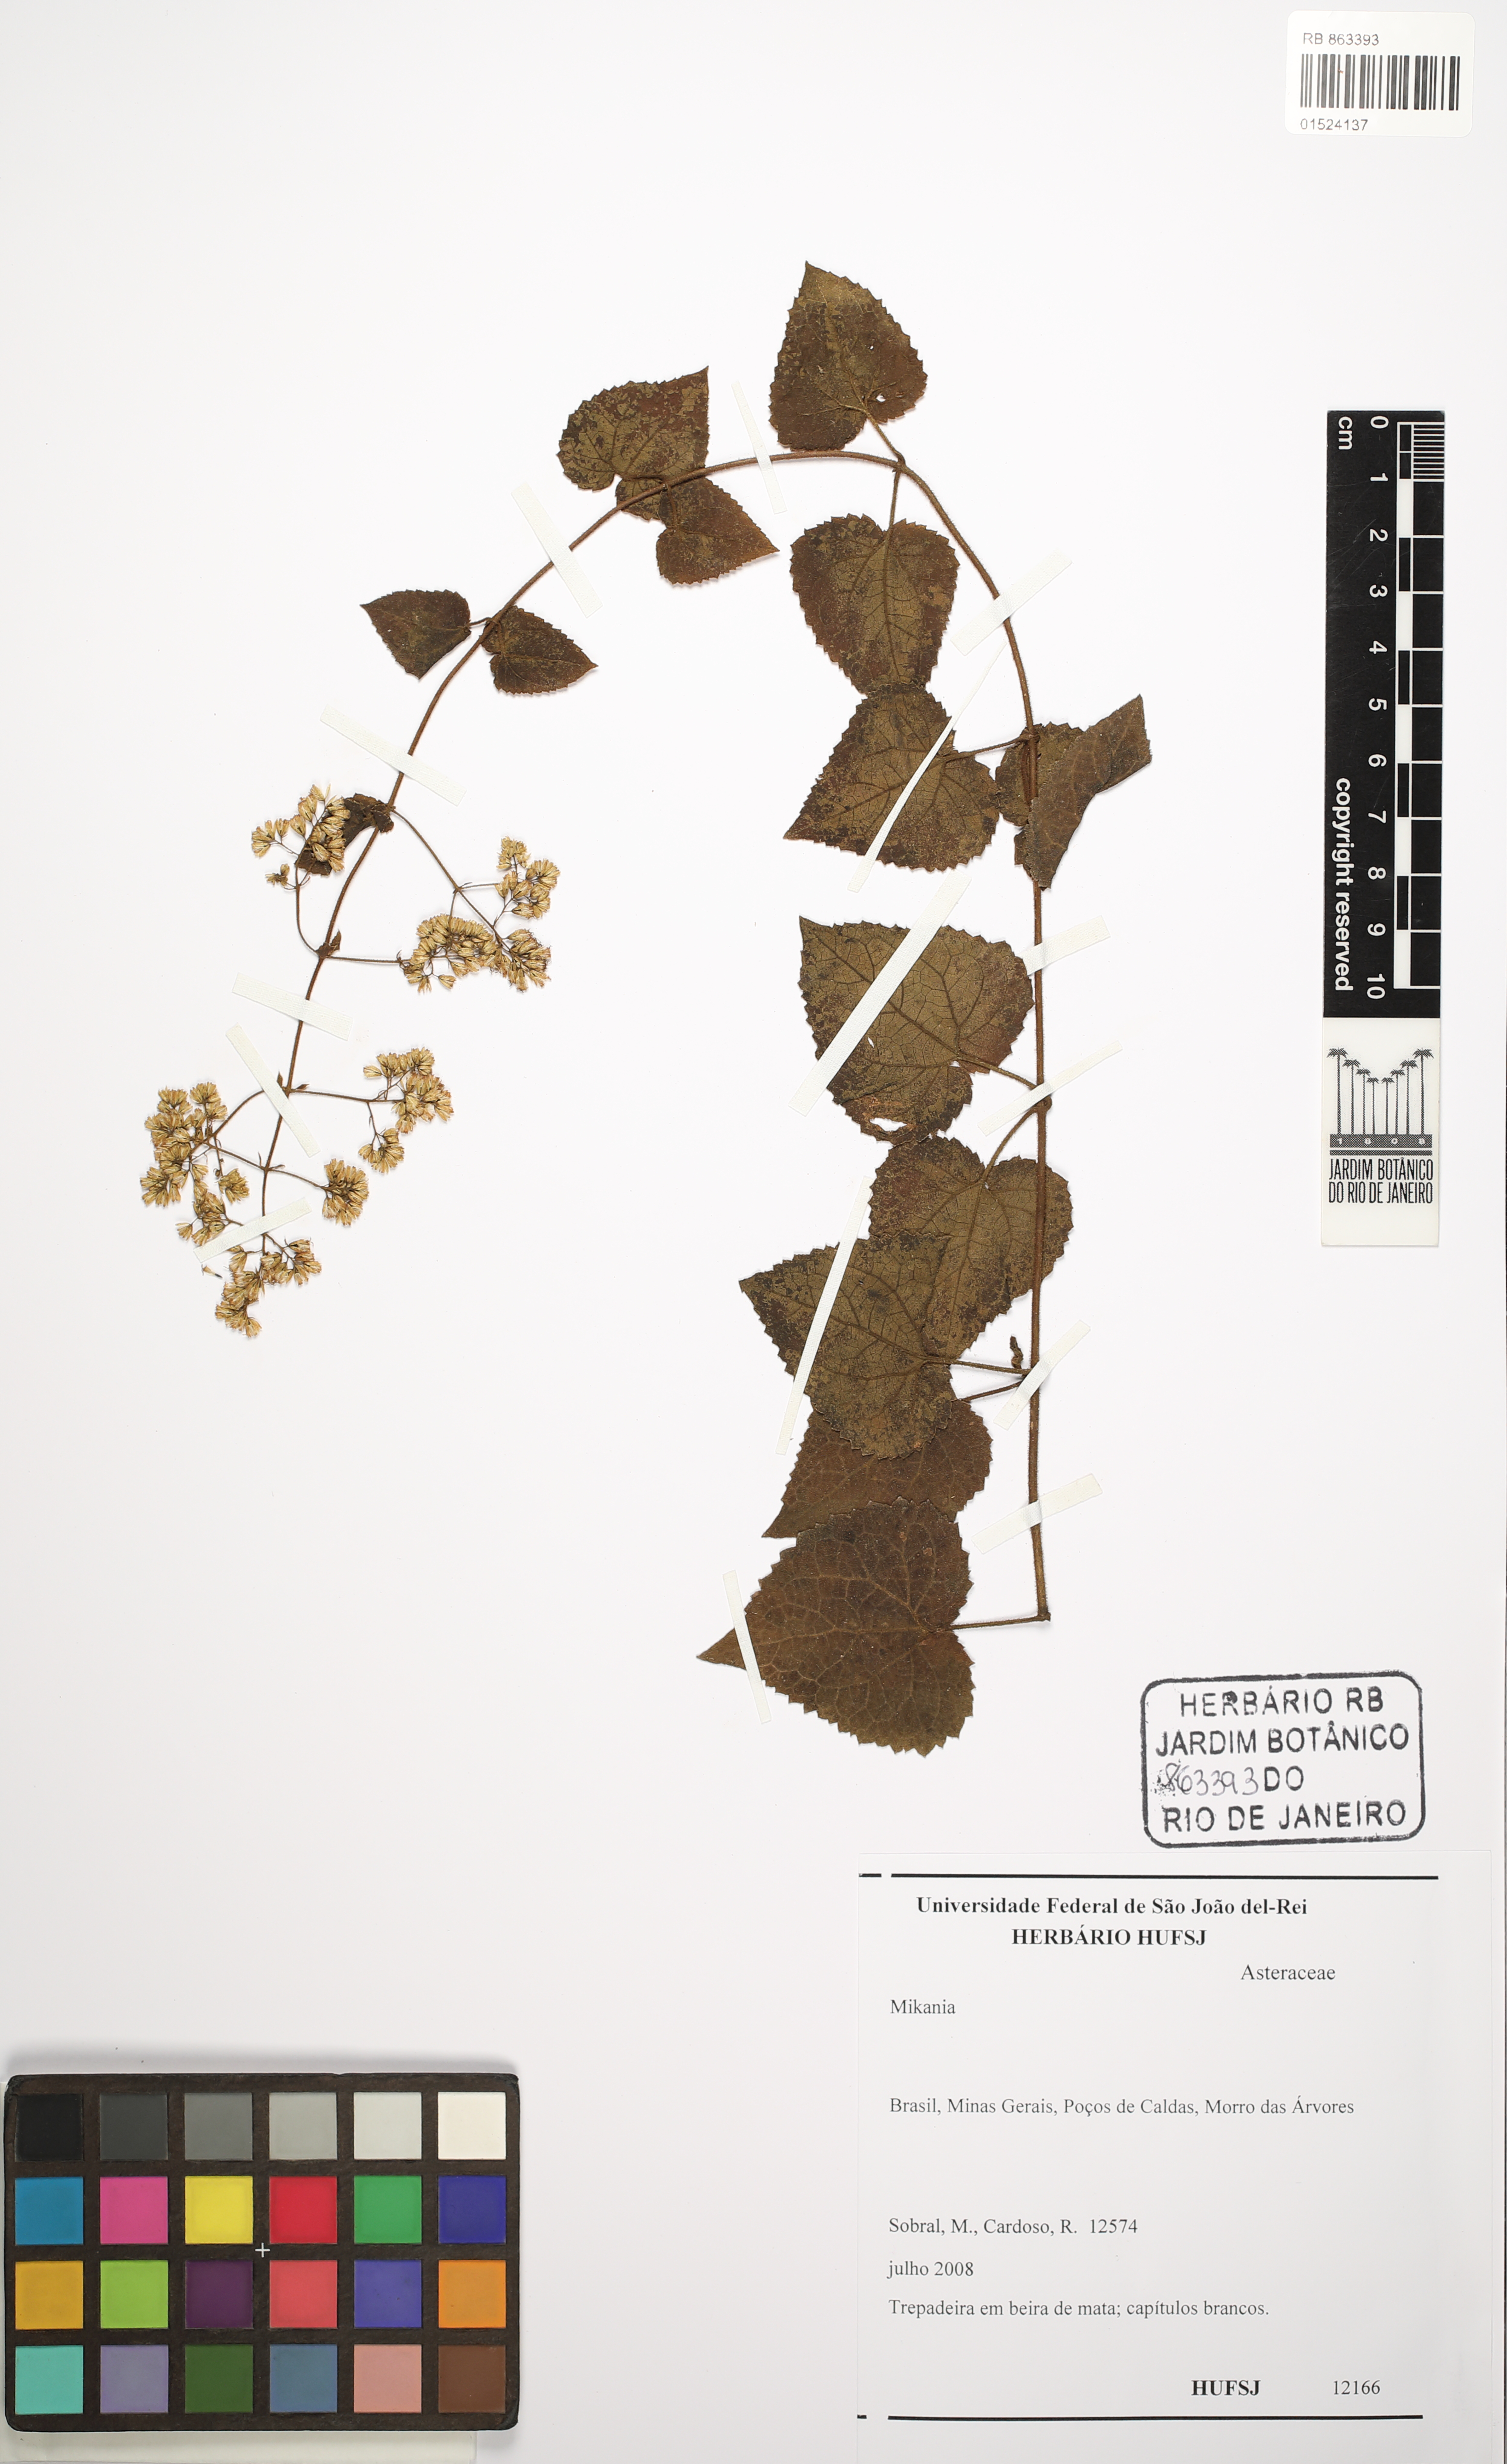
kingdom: Plantae
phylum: Tracheophyta
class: Magnoliopsida
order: Asterales
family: Asteraceae
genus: Mikania
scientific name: Mikania
